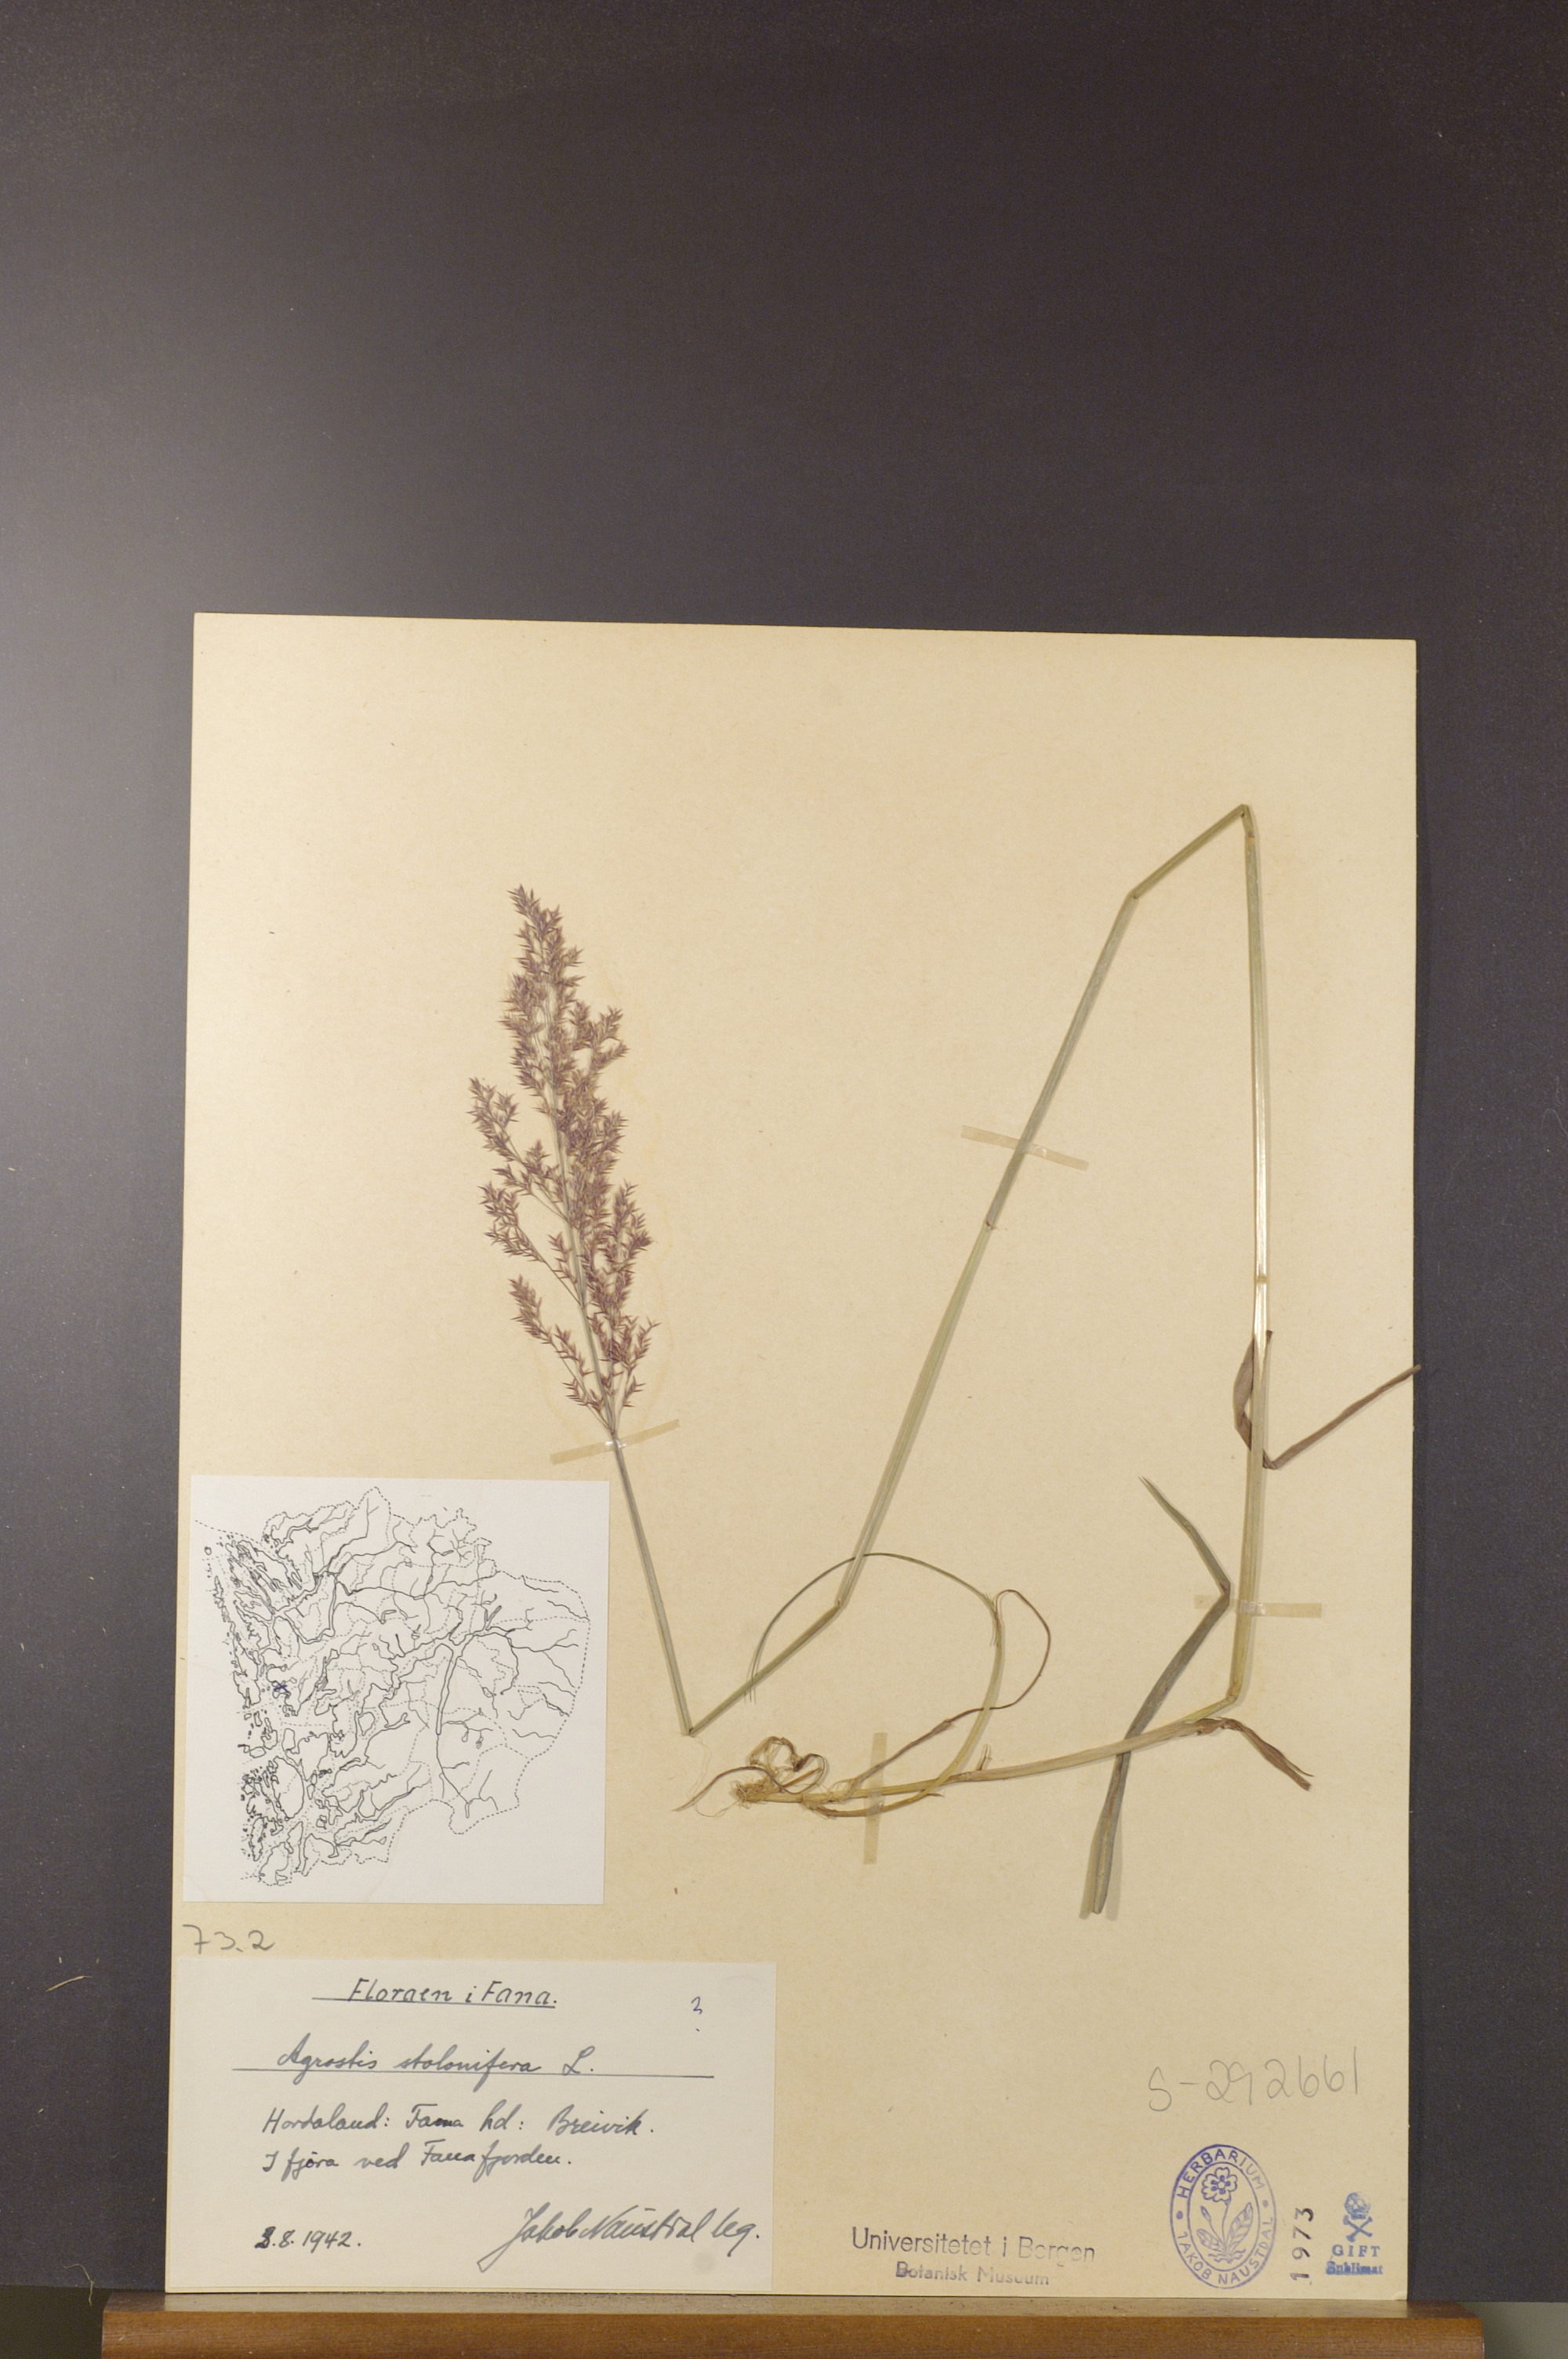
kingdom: Plantae
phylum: Tracheophyta
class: Liliopsida
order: Poales
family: Poaceae
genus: Agrostis
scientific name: Agrostis stolonifera
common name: Creeping bentgrass
